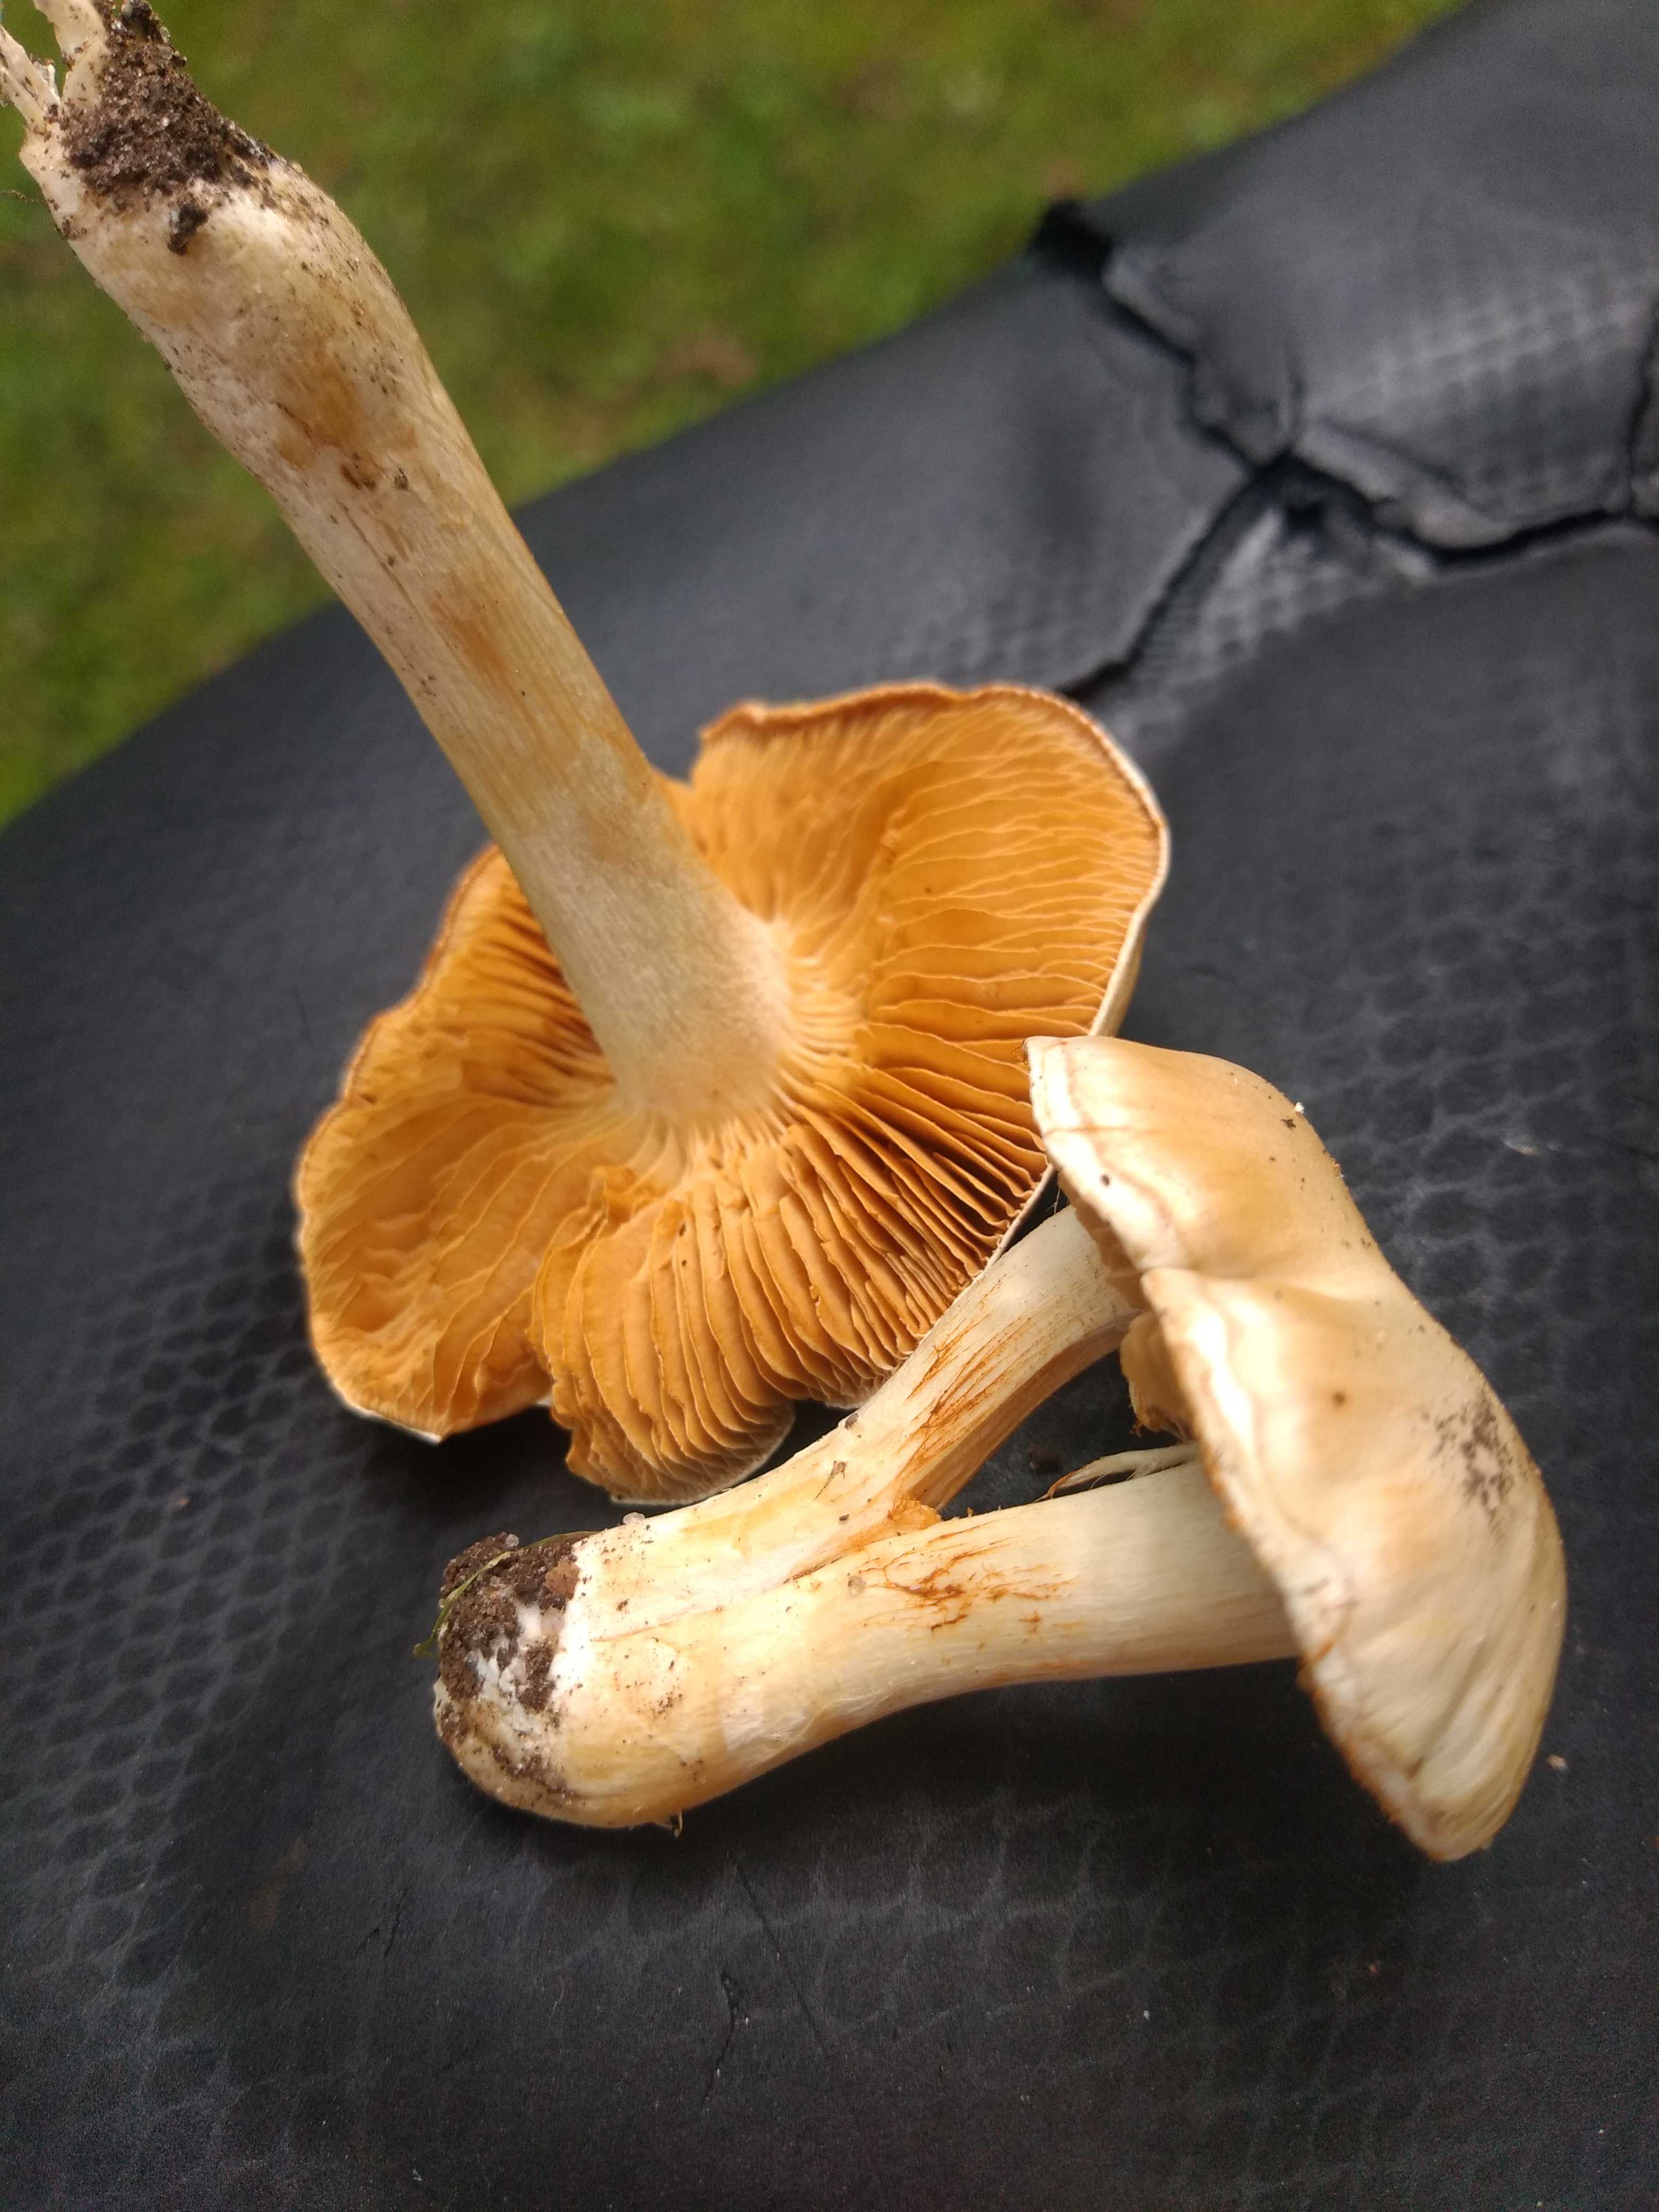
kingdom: Fungi
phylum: Basidiomycota
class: Agaricomycetes
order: Agaricales
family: Cortinariaceae
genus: Thaxterogaster
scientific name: Thaxterogaster leucoluteolus
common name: isabella slørhat
